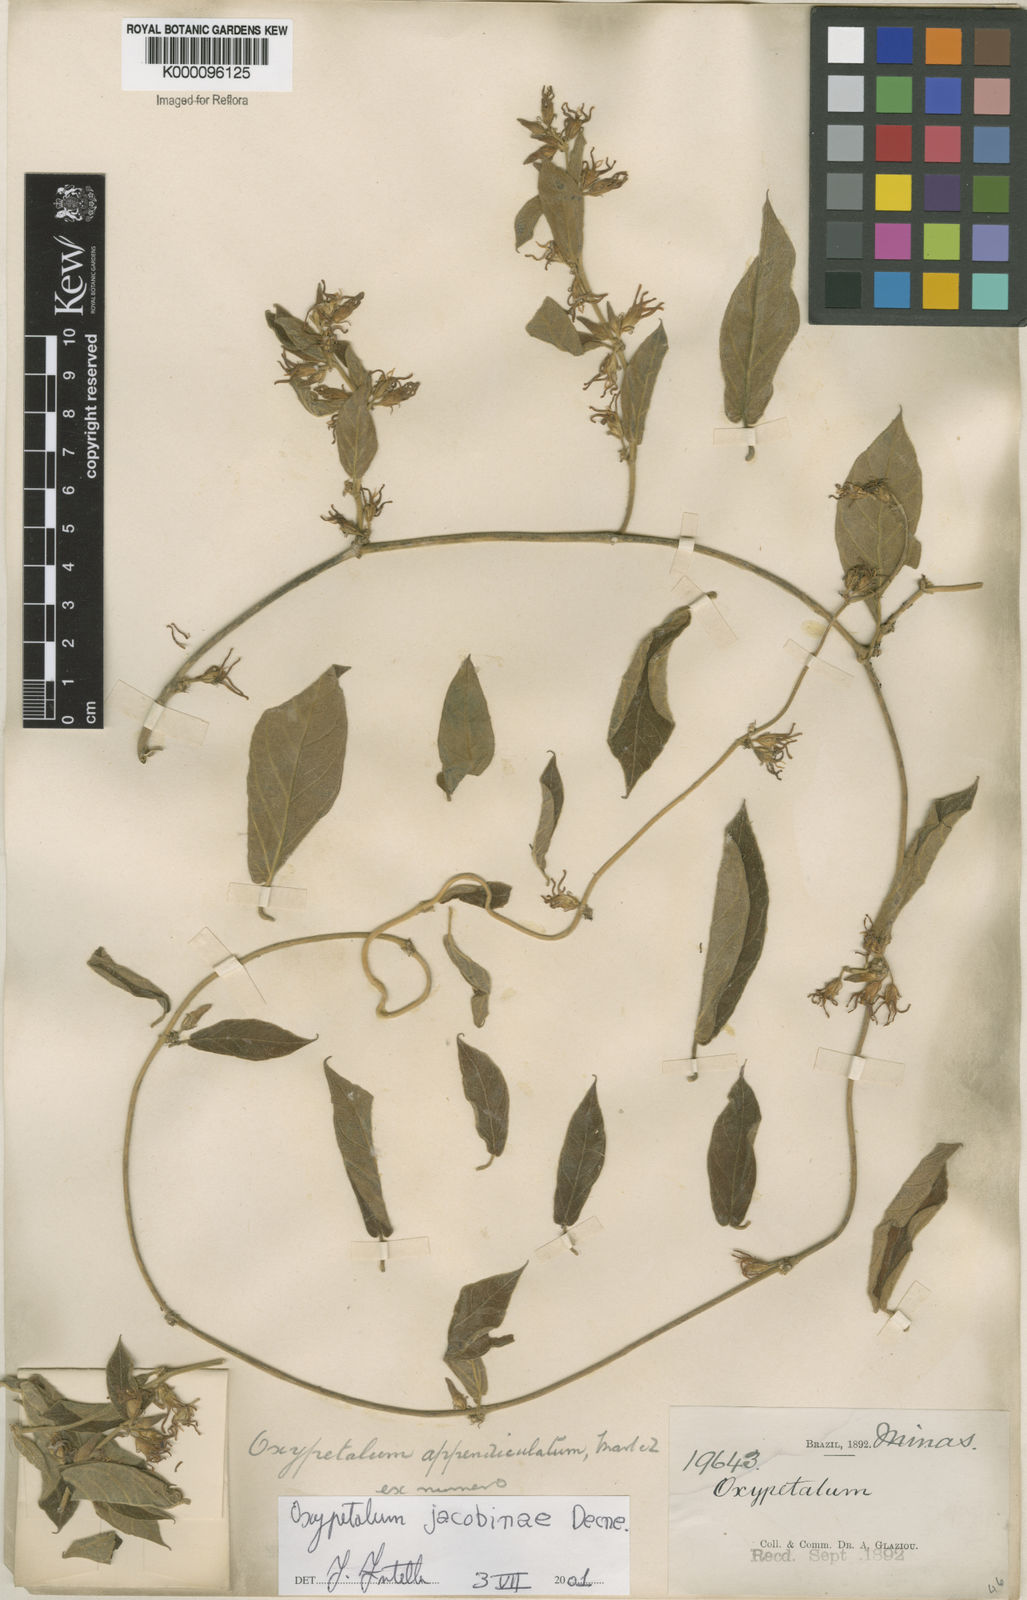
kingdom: Plantae
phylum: Tracheophyta
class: Magnoliopsida
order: Gentianales
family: Apocynaceae
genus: Oxypetalum
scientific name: Oxypetalum jacobinae
